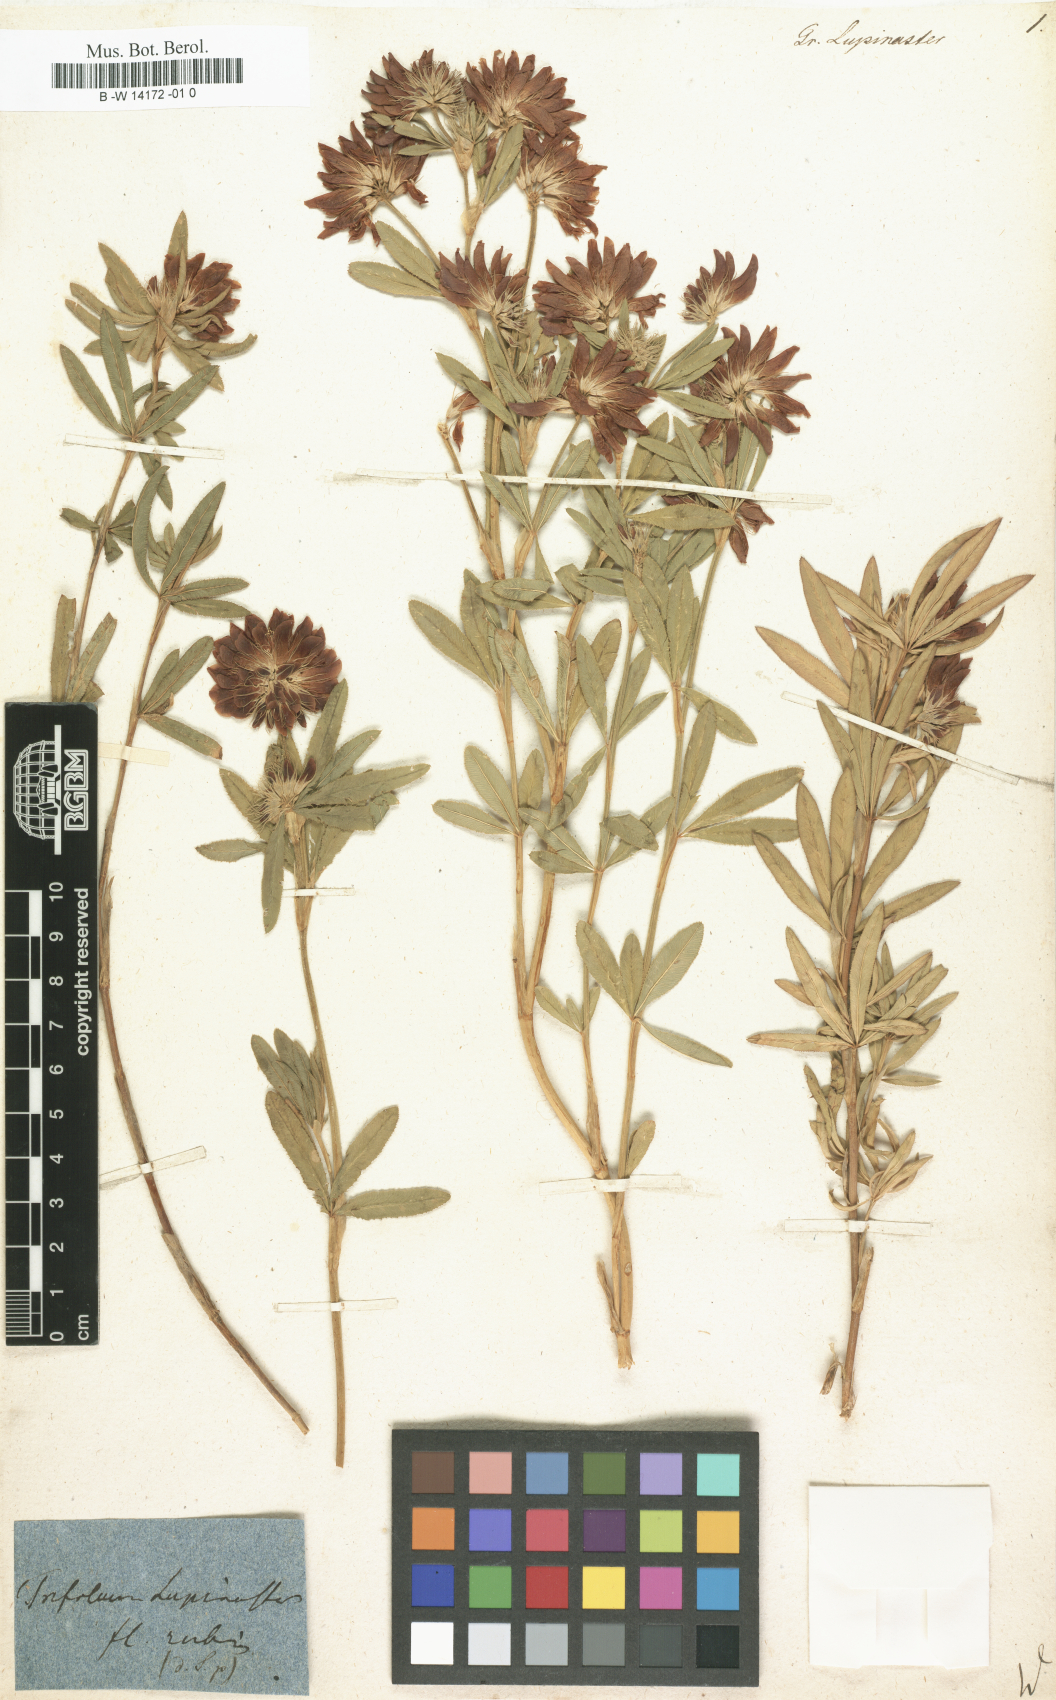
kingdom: Plantae
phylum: Tracheophyta
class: Magnoliopsida
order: Fabales
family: Fabaceae
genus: Trifolium
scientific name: Trifolium lupinaster
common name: Lupine clover
